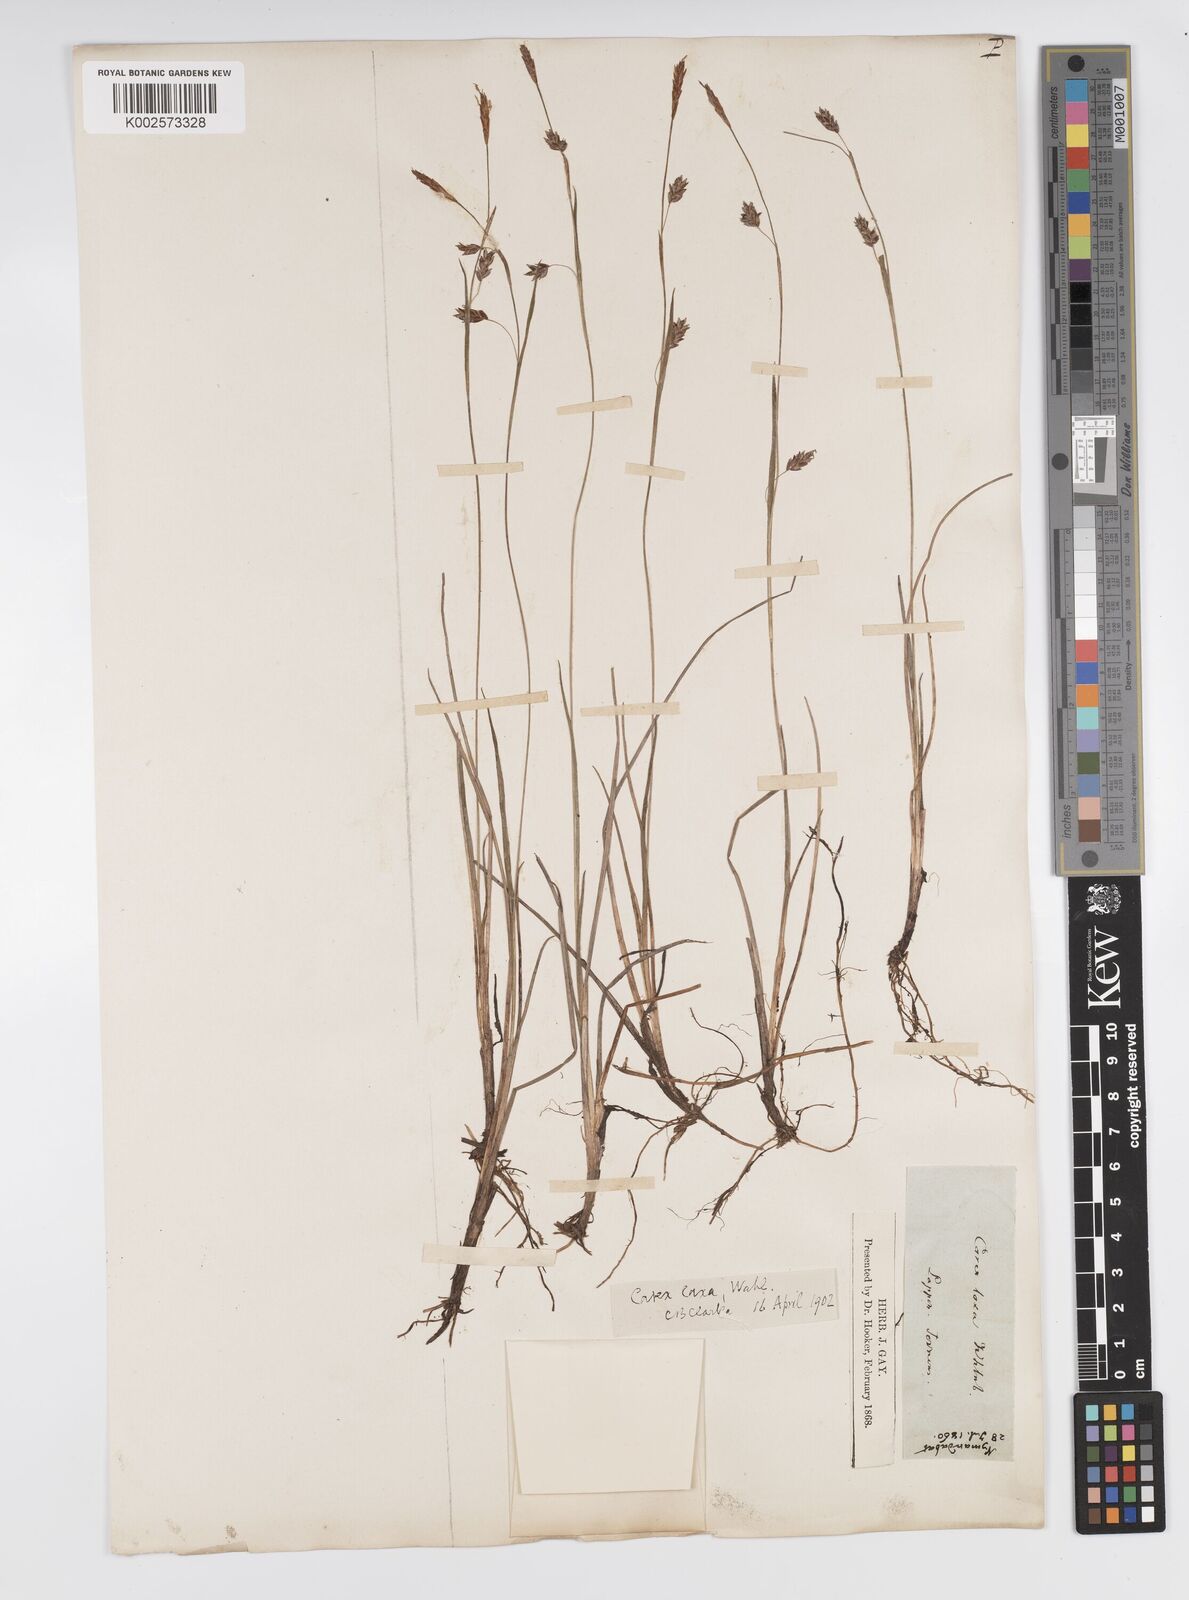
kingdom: Plantae
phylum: Tracheophyta
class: Liliopsida
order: Poales
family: Cyperaceae
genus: Carex
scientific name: Carex laxa
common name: Weak sedge
